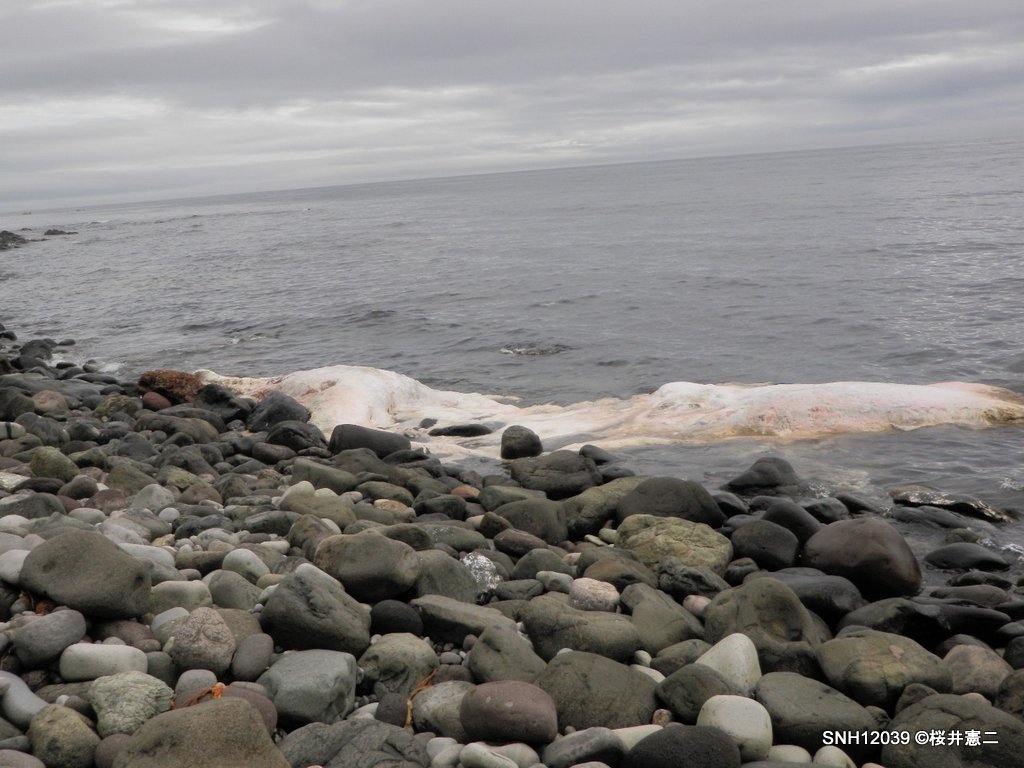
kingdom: Animalia
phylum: Chordata
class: Mammalia
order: Cetacea
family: Physeteridae
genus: Physeter
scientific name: Physeter macrocephalus
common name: Sperm whale
